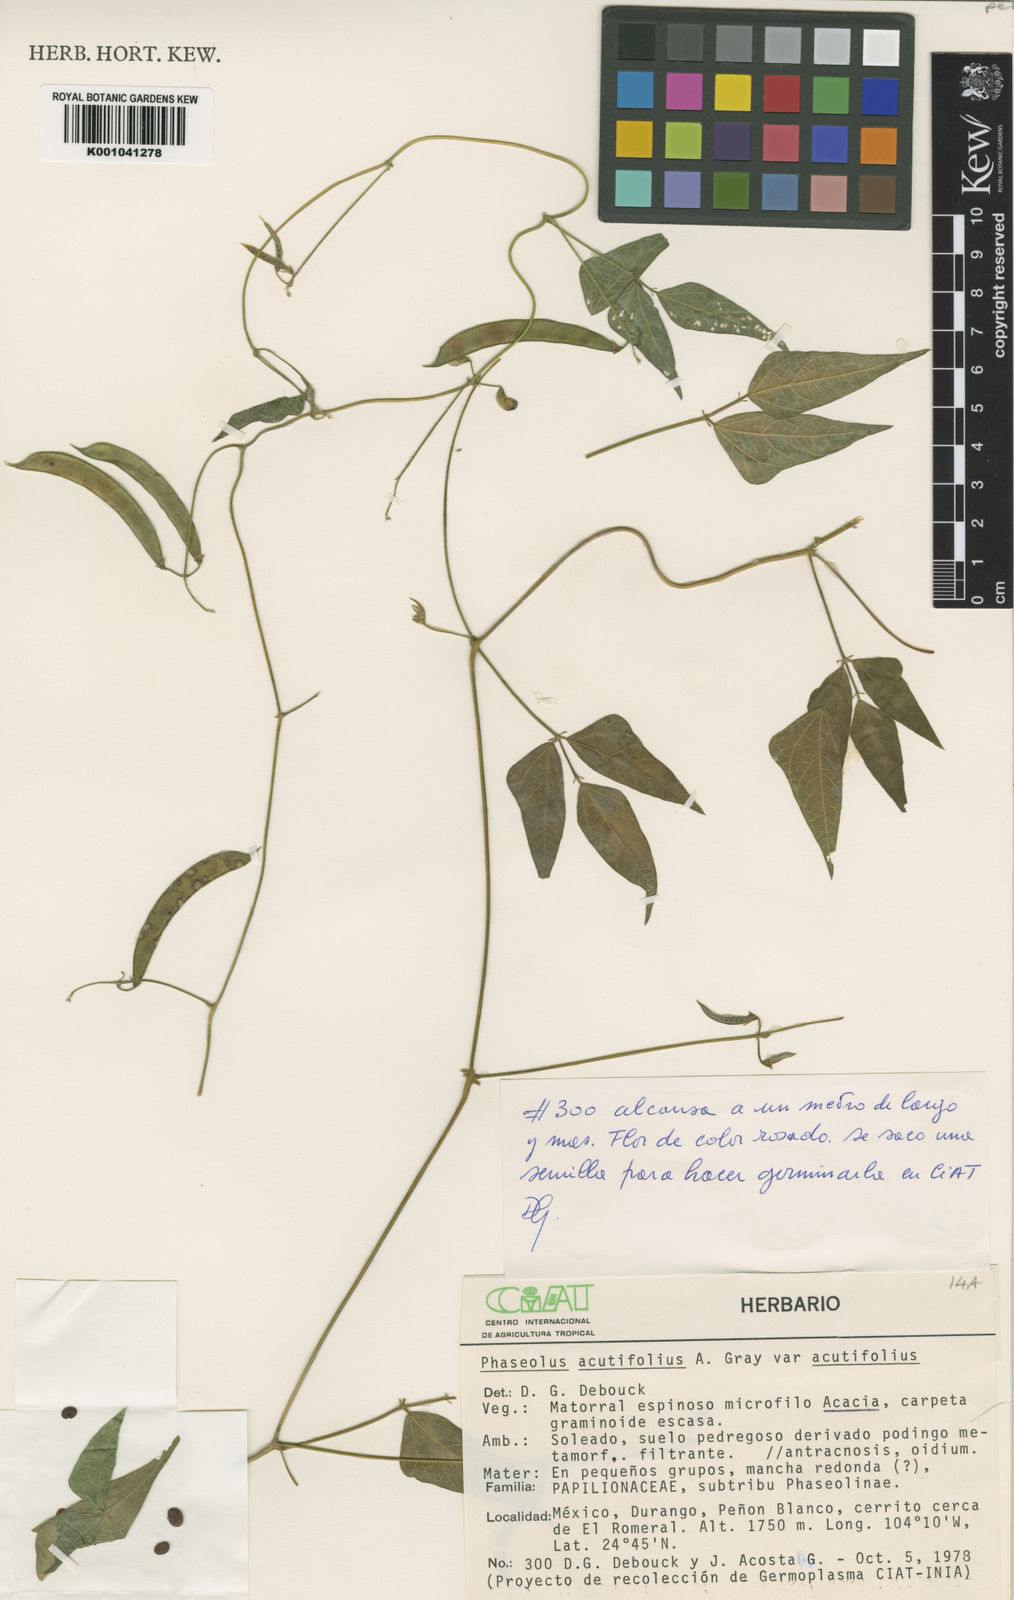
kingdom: Plantae
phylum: Tracheophyta
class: Magnoliopsida
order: Fabales
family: Fabaceae
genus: Phaseolus
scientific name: Phaseolus acutifolius
